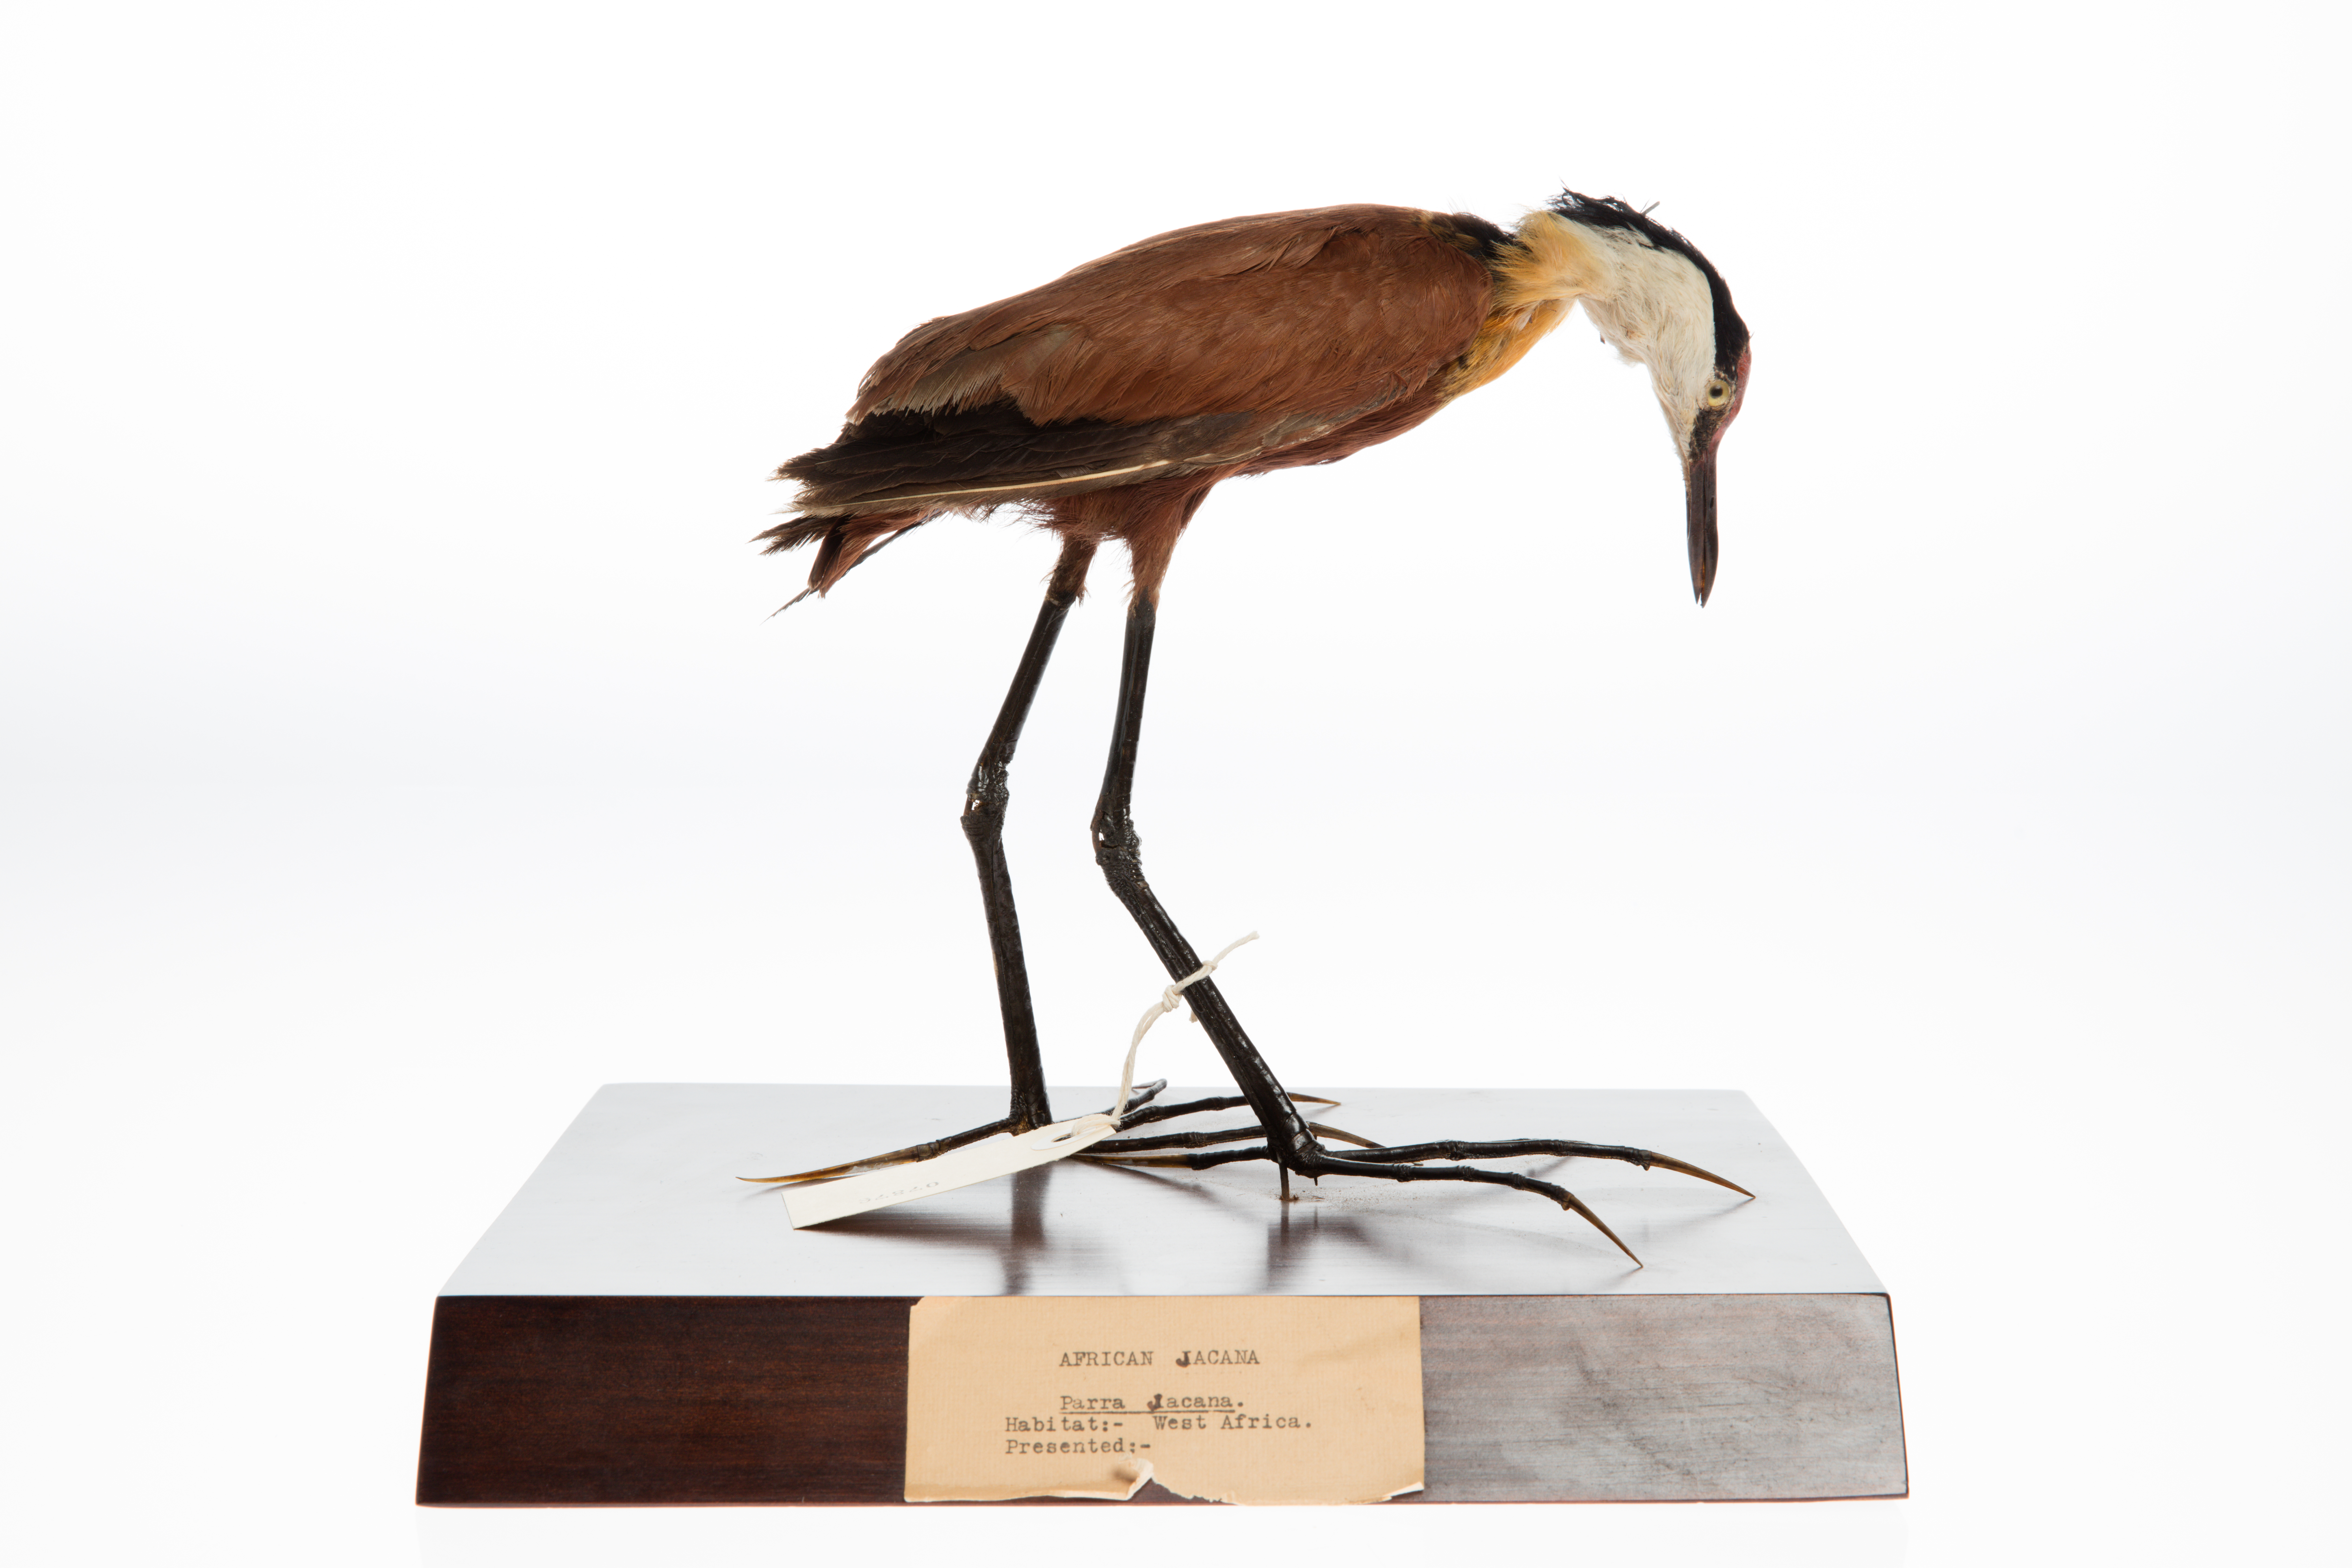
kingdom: Animalia
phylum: Chordata
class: Aves
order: Charadriiformes
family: Jacanidae
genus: Jacana
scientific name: Jacana jacana
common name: Wattled jacana
